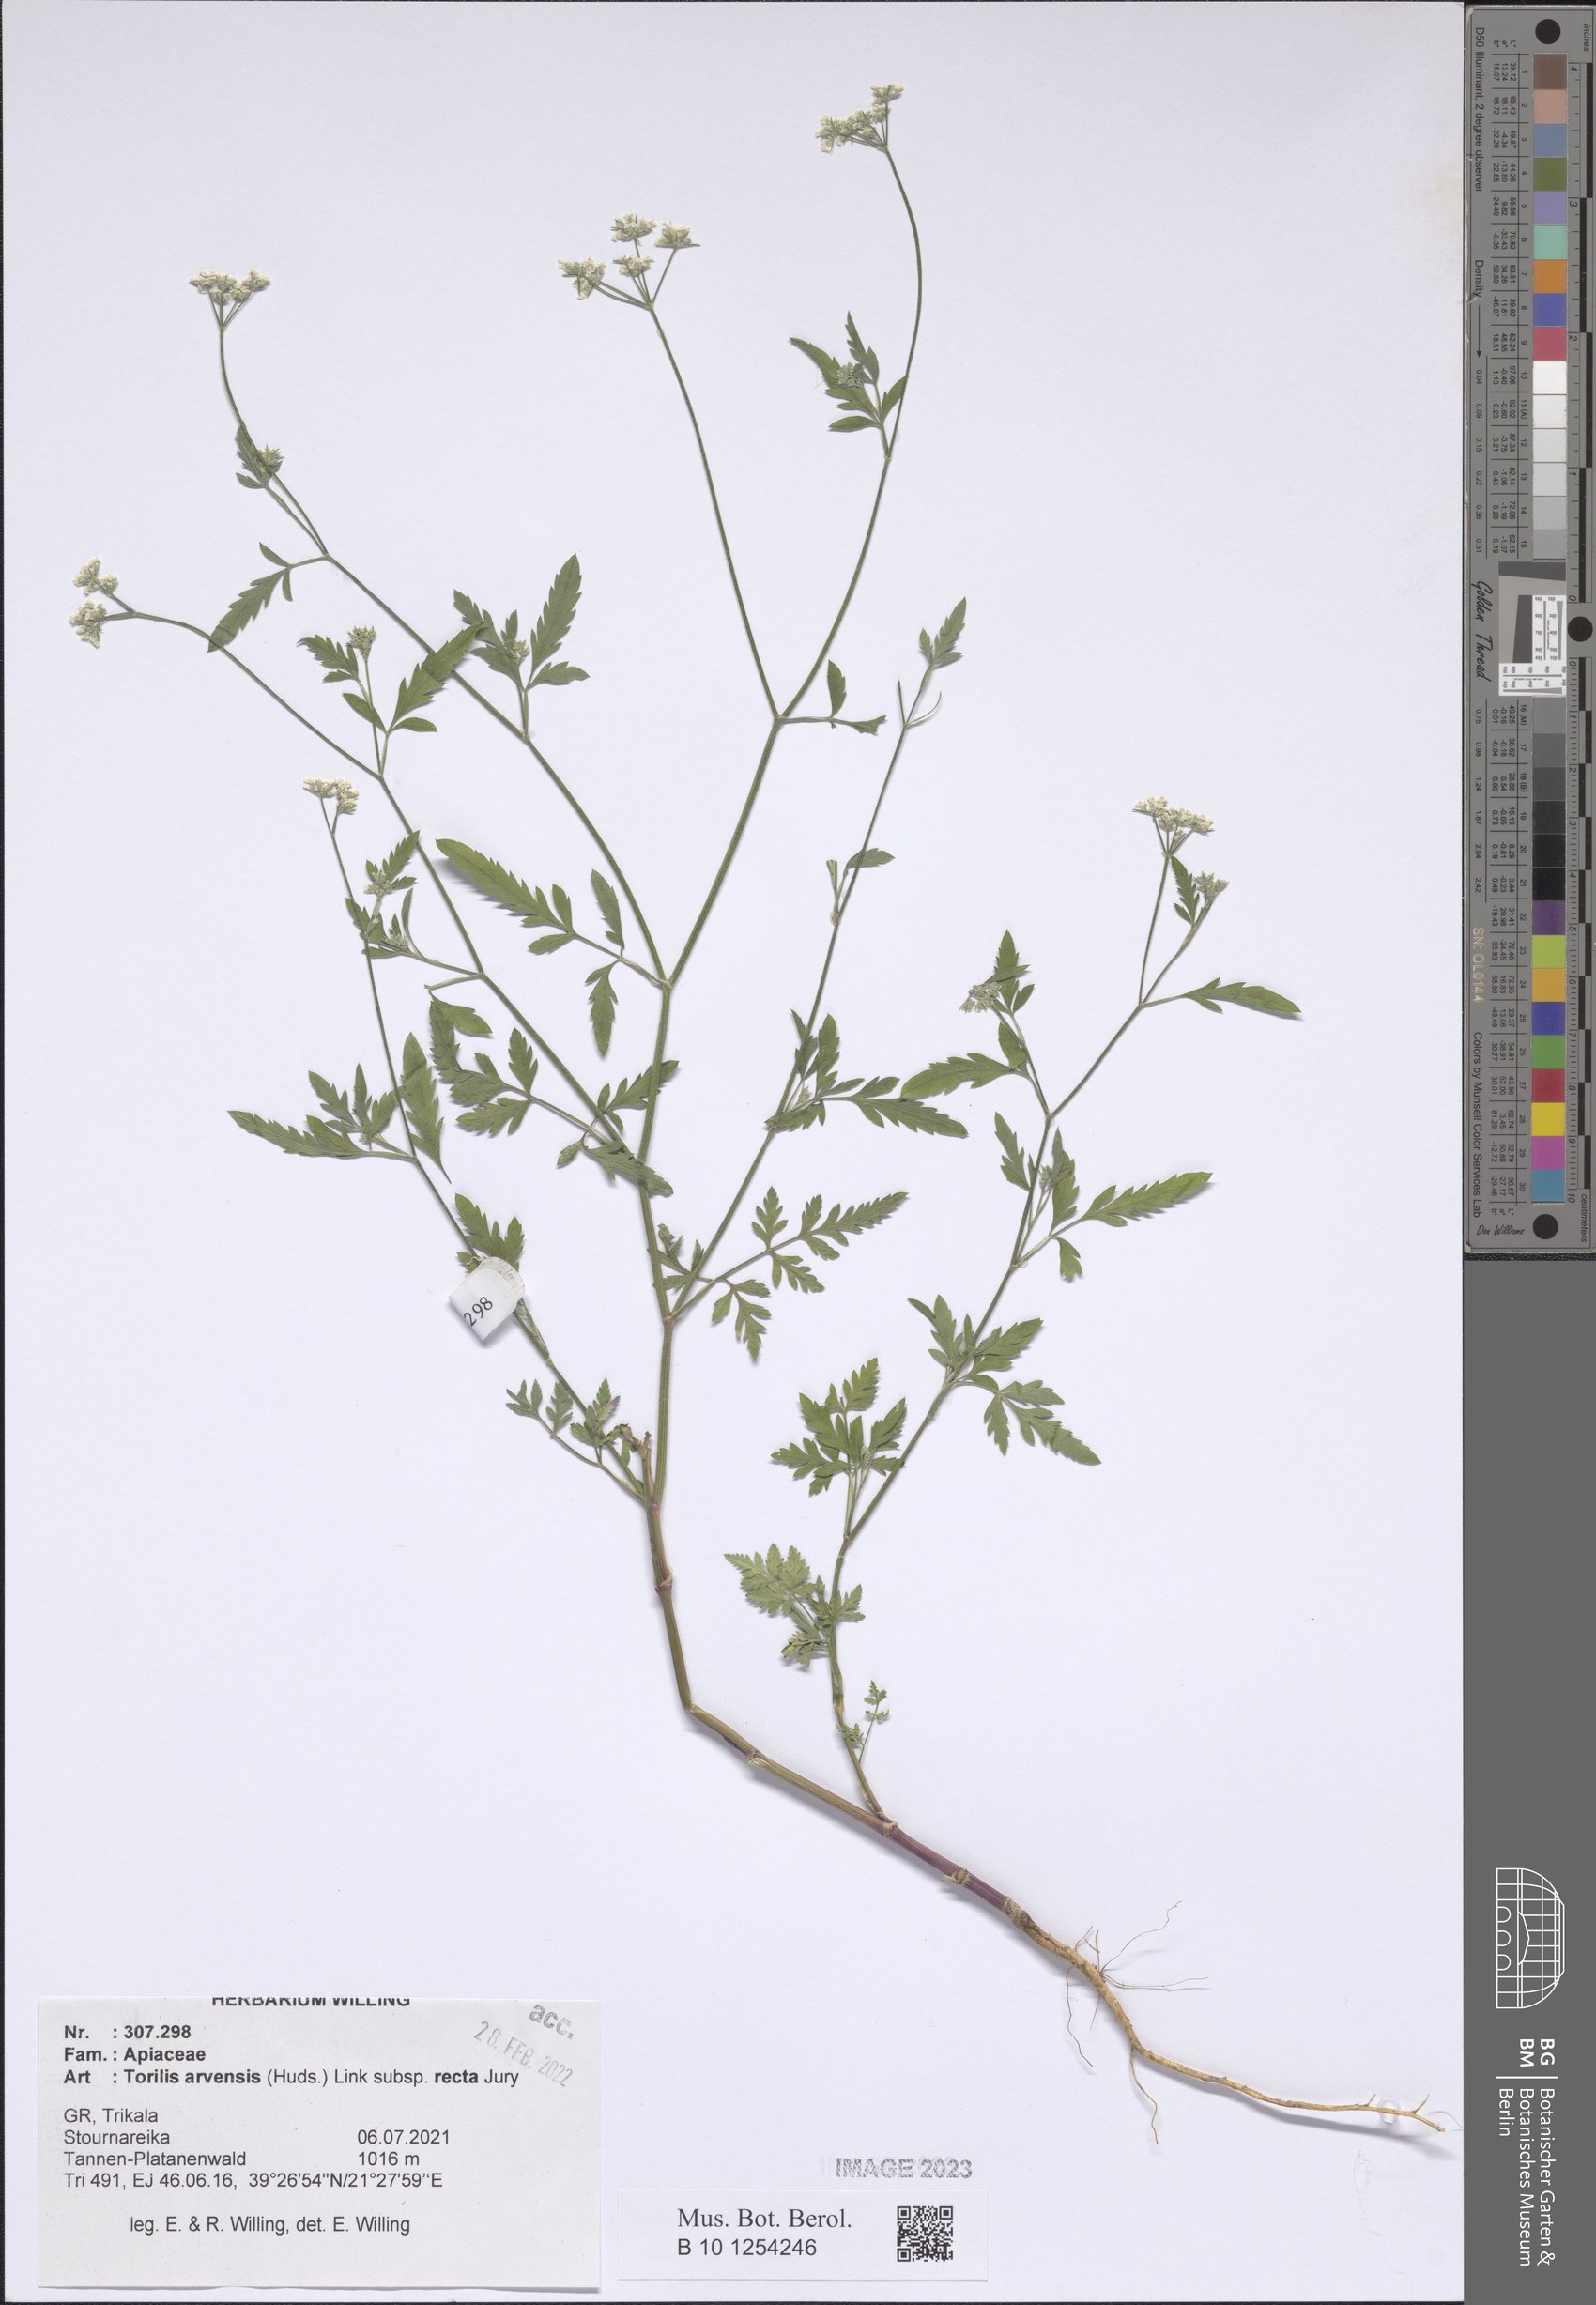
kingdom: Plantae
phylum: Tracheophyta
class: Magnoliopsida
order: Apiales
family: Apiaceae
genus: Torilis
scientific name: Torilis arvensis
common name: Spreading hedge-parsley
